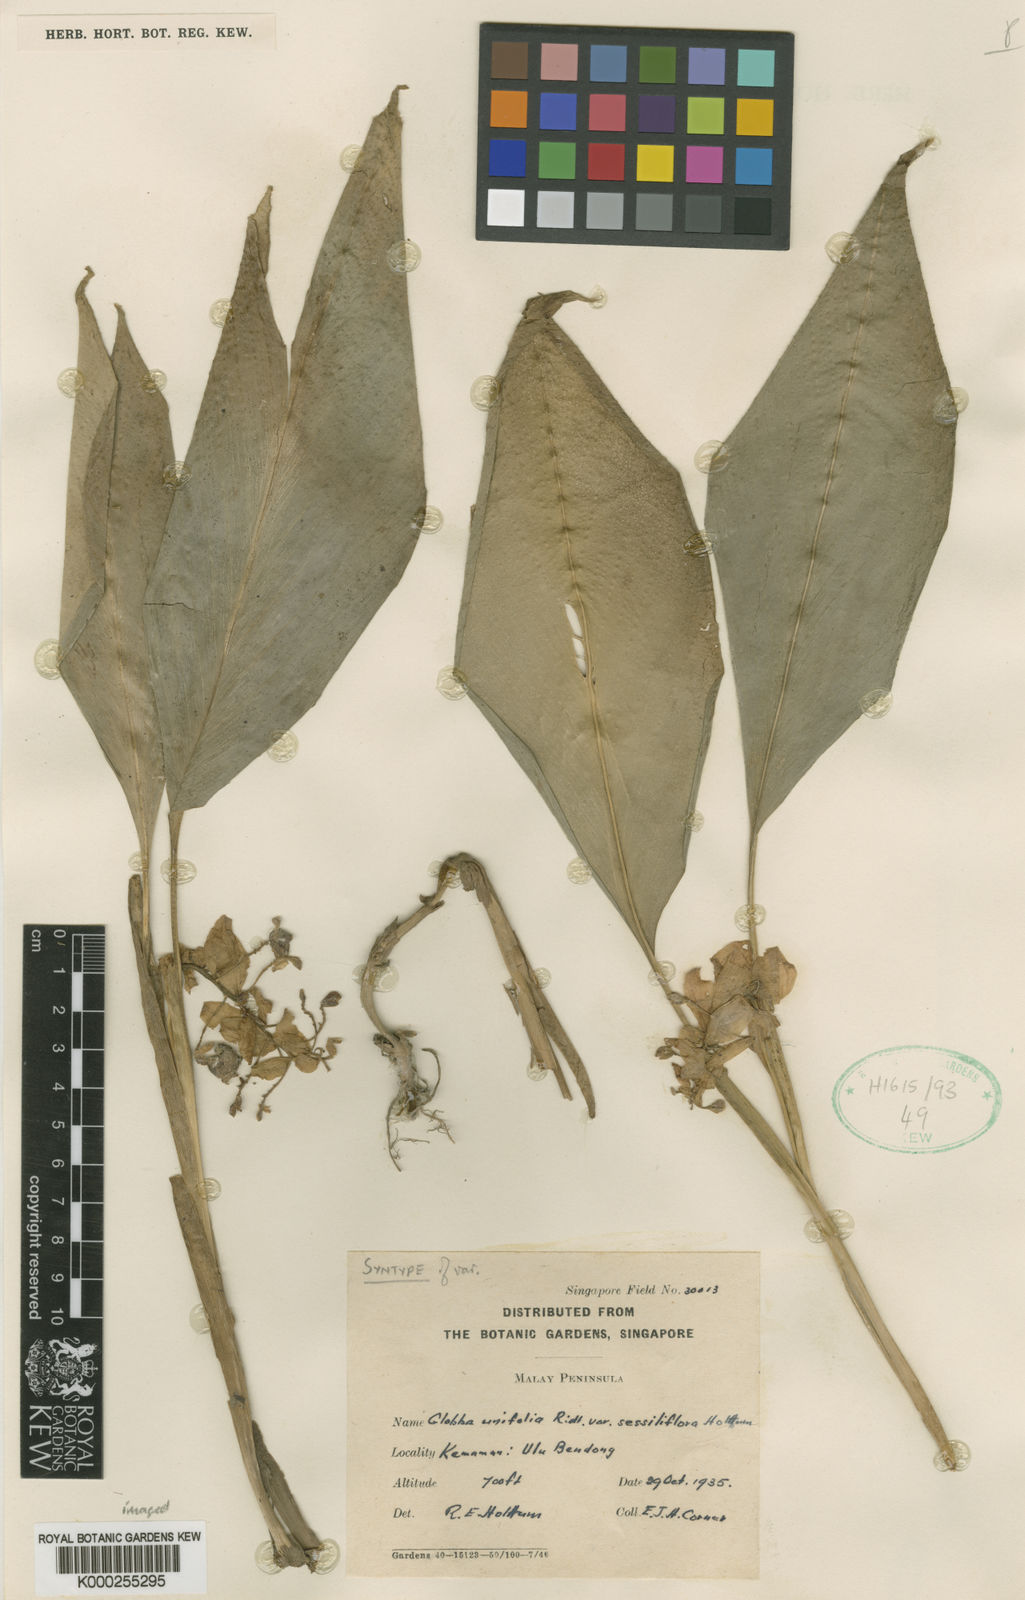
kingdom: Plantae
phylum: Tracheophyta
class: Liliopsida
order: Zingiberales
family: Zingiberaceae
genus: Globba
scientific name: Globba unifolia
